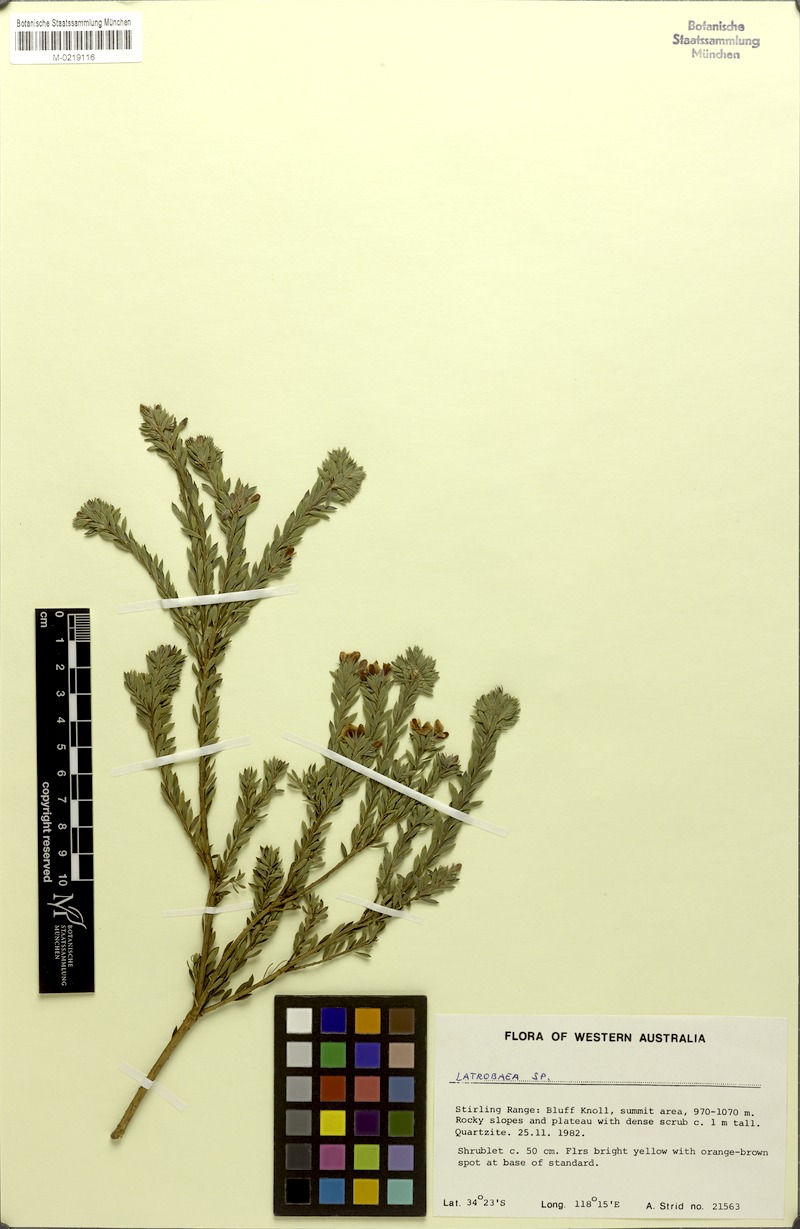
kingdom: Plantae
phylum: Tracheophyta
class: Magnoliopsida
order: Fabales
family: Fabaceae
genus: Latrobea
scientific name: Latrobea colophona
